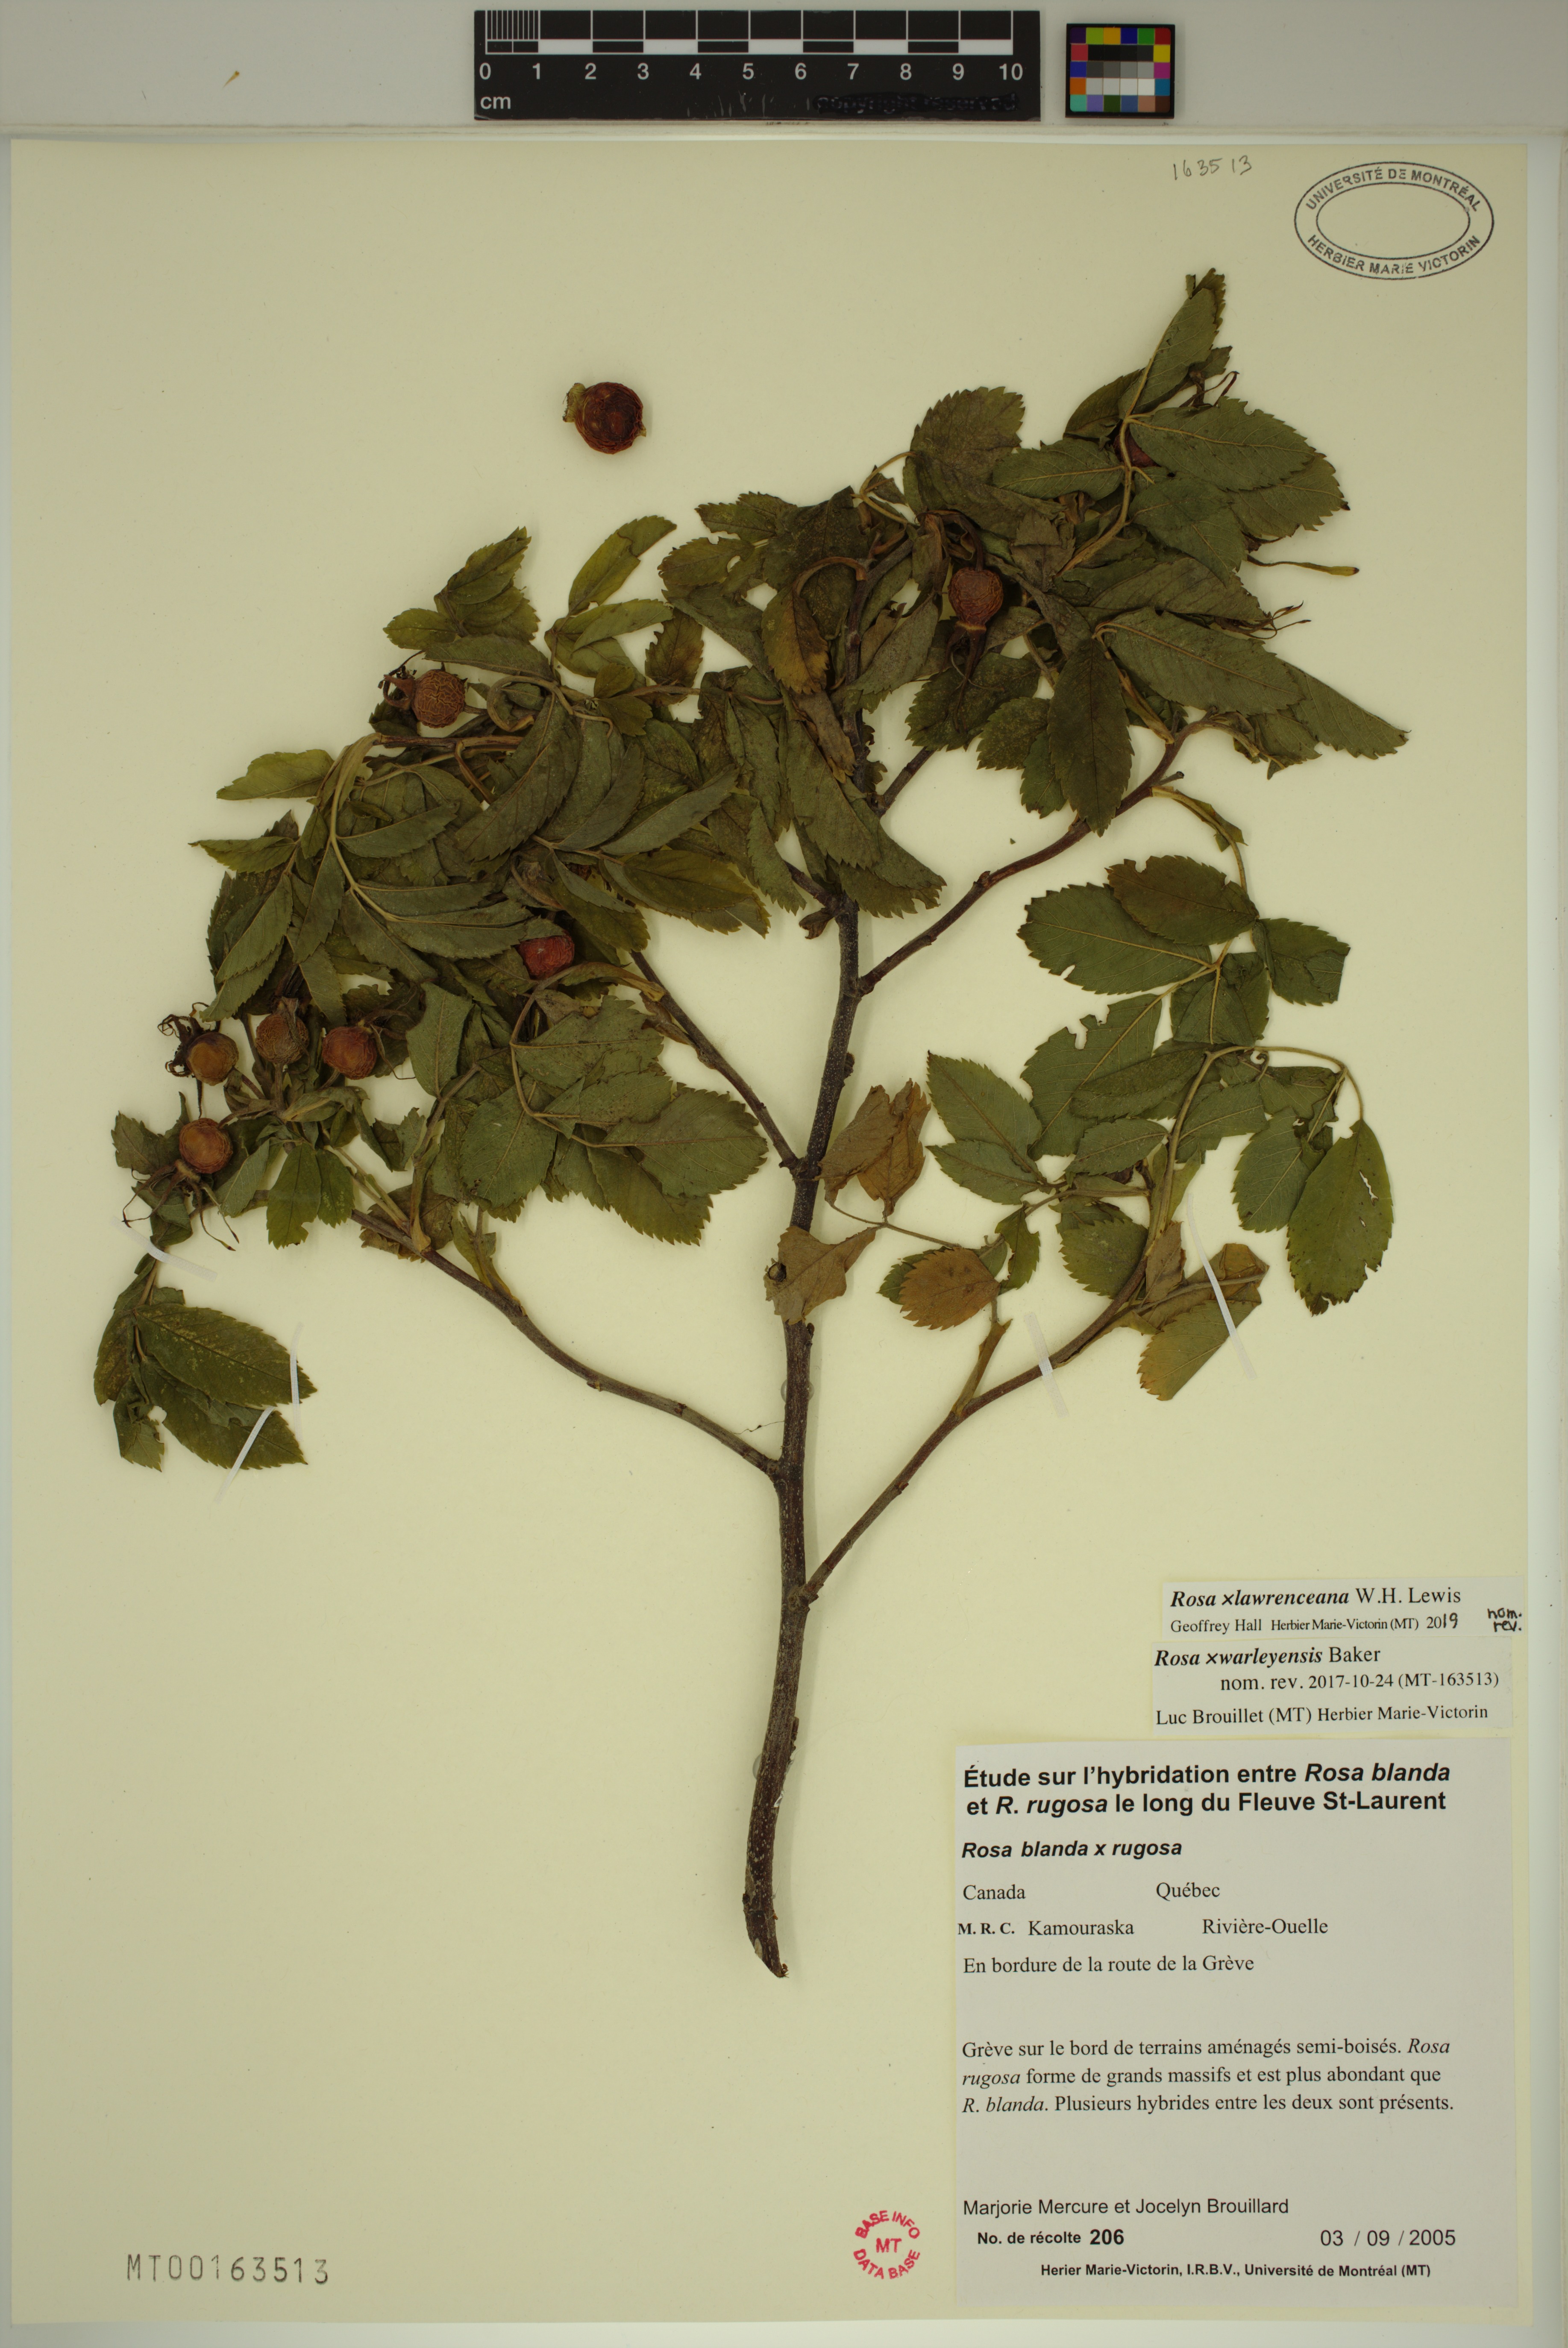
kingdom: Plantae
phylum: Tracheophyta
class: Magnoliopsida
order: Rosales
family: Rosaceae
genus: Rosa
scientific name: Rosa chinensis
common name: China rose
